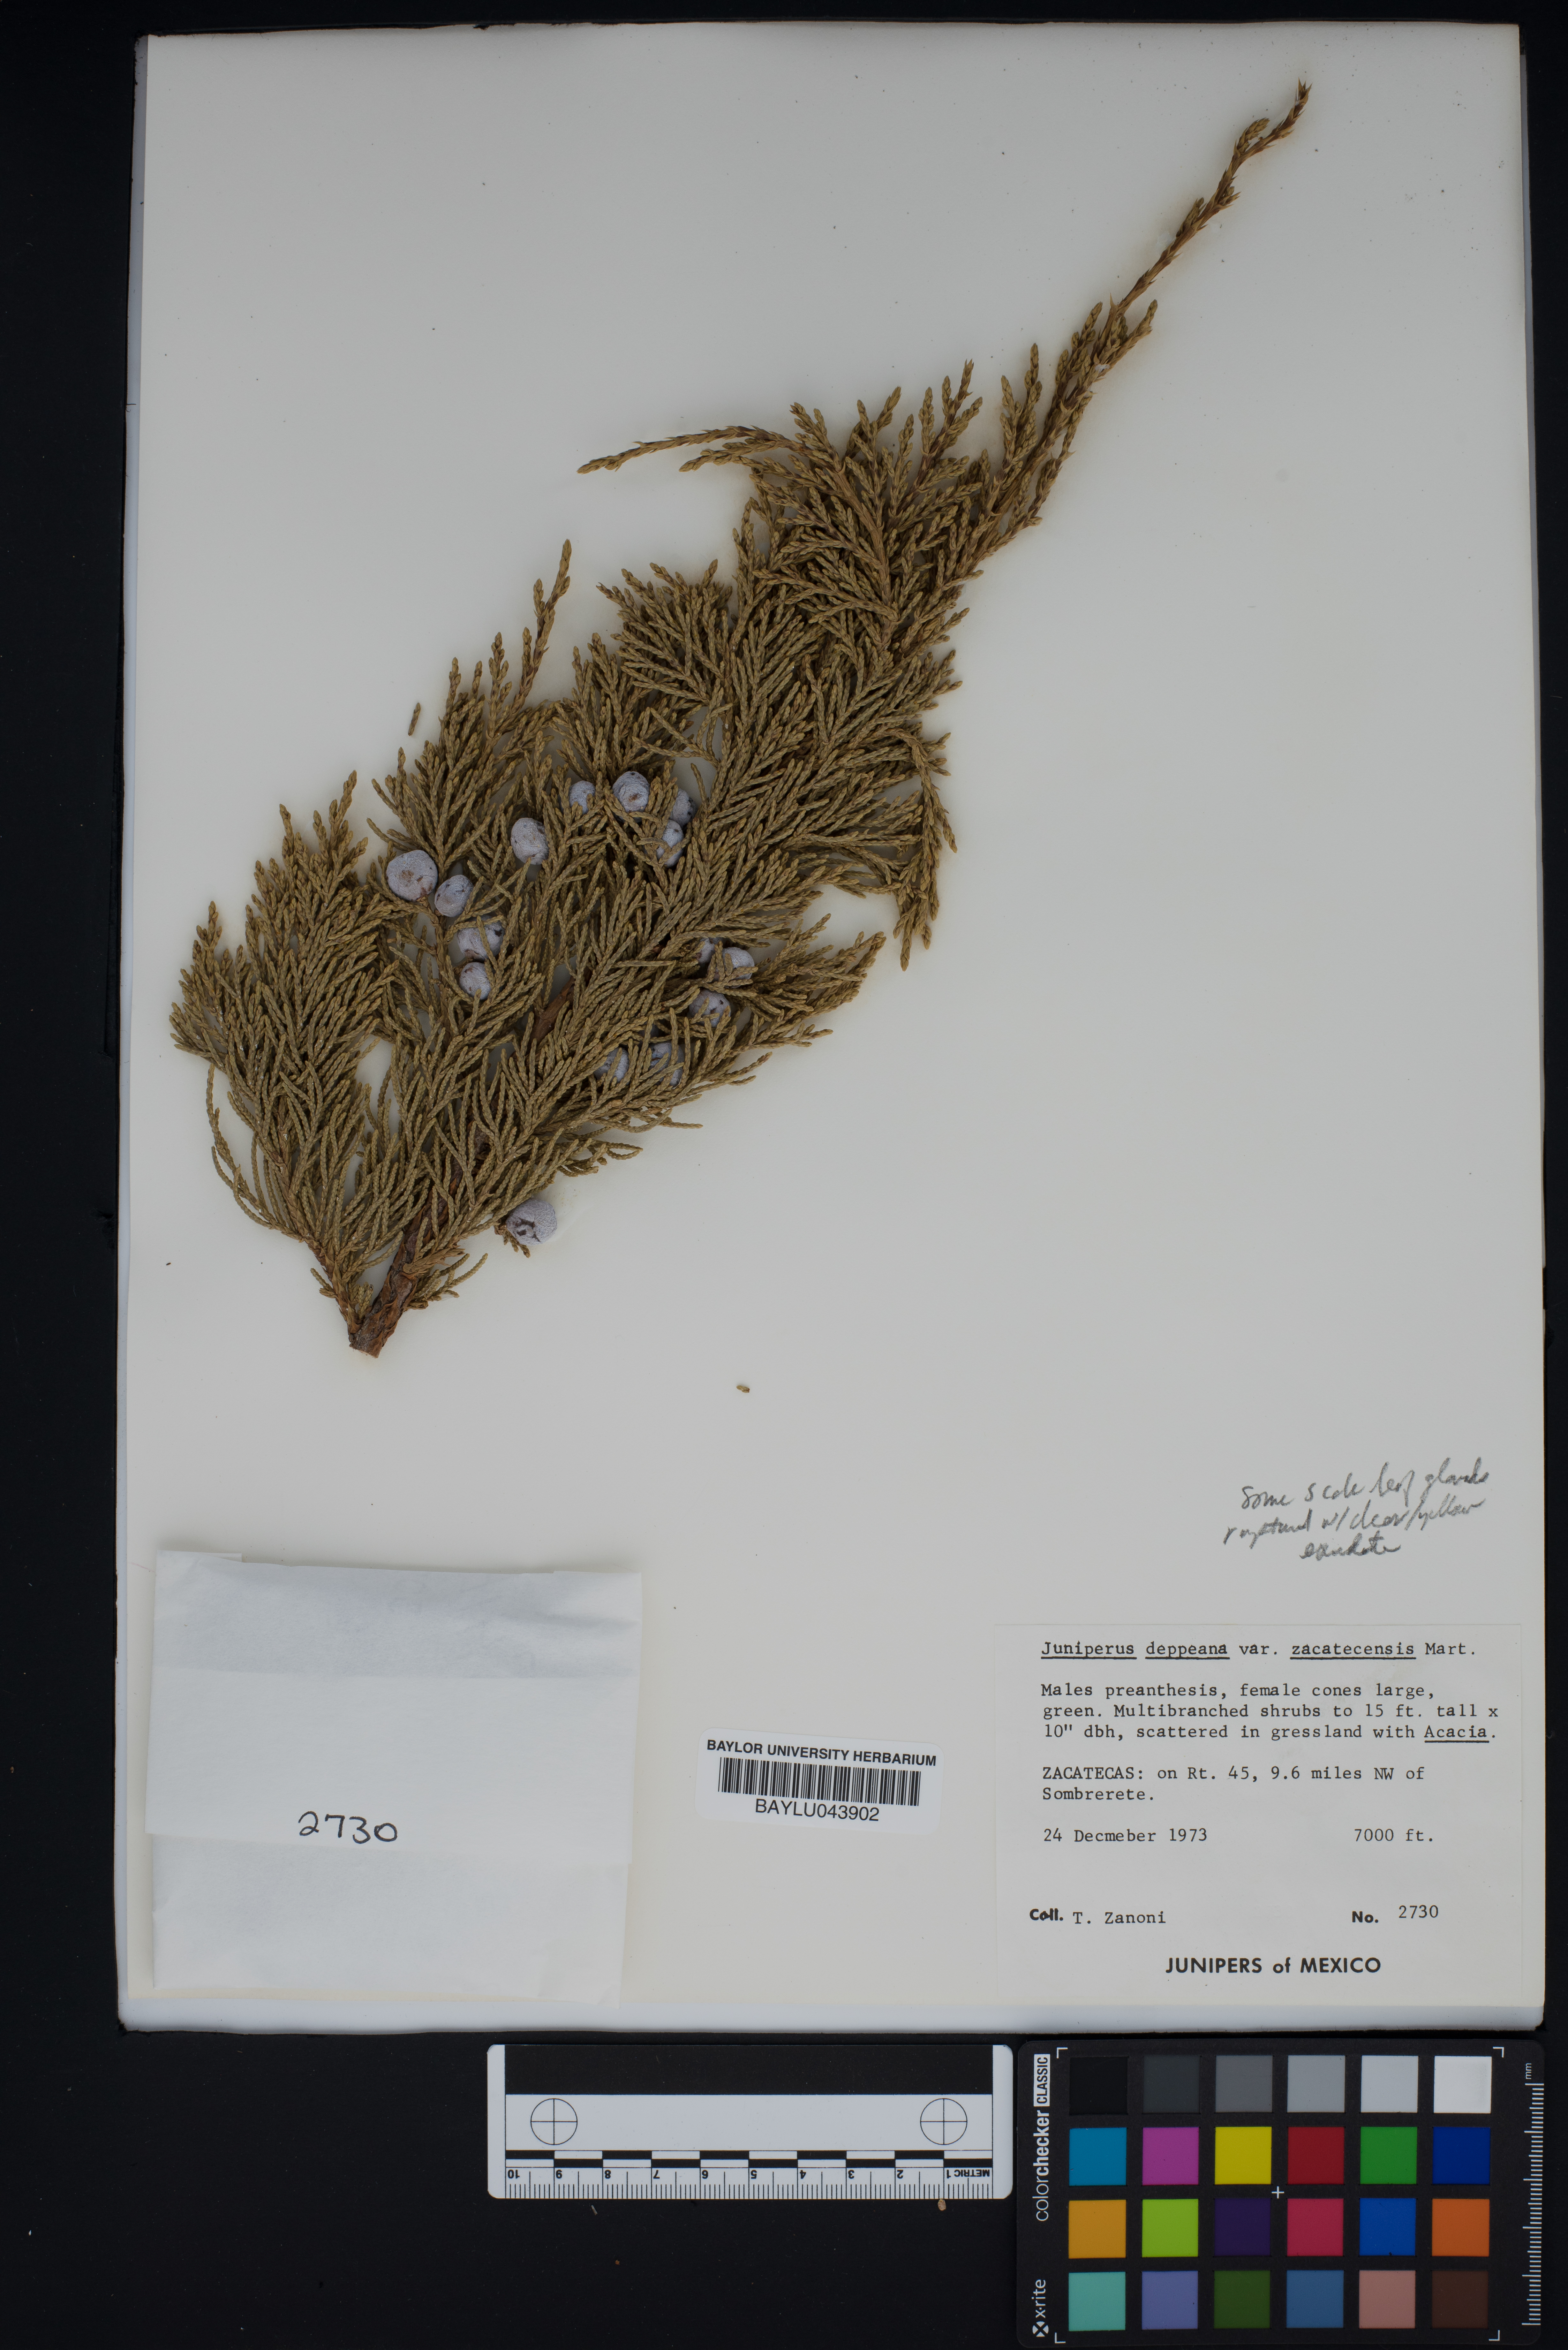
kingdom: Plantae
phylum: Tracheophyta
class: Pinopsida
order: Pinales
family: Cupressaceae
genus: Juniperus
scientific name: Juniperus deppeana
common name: Alligator juniper
